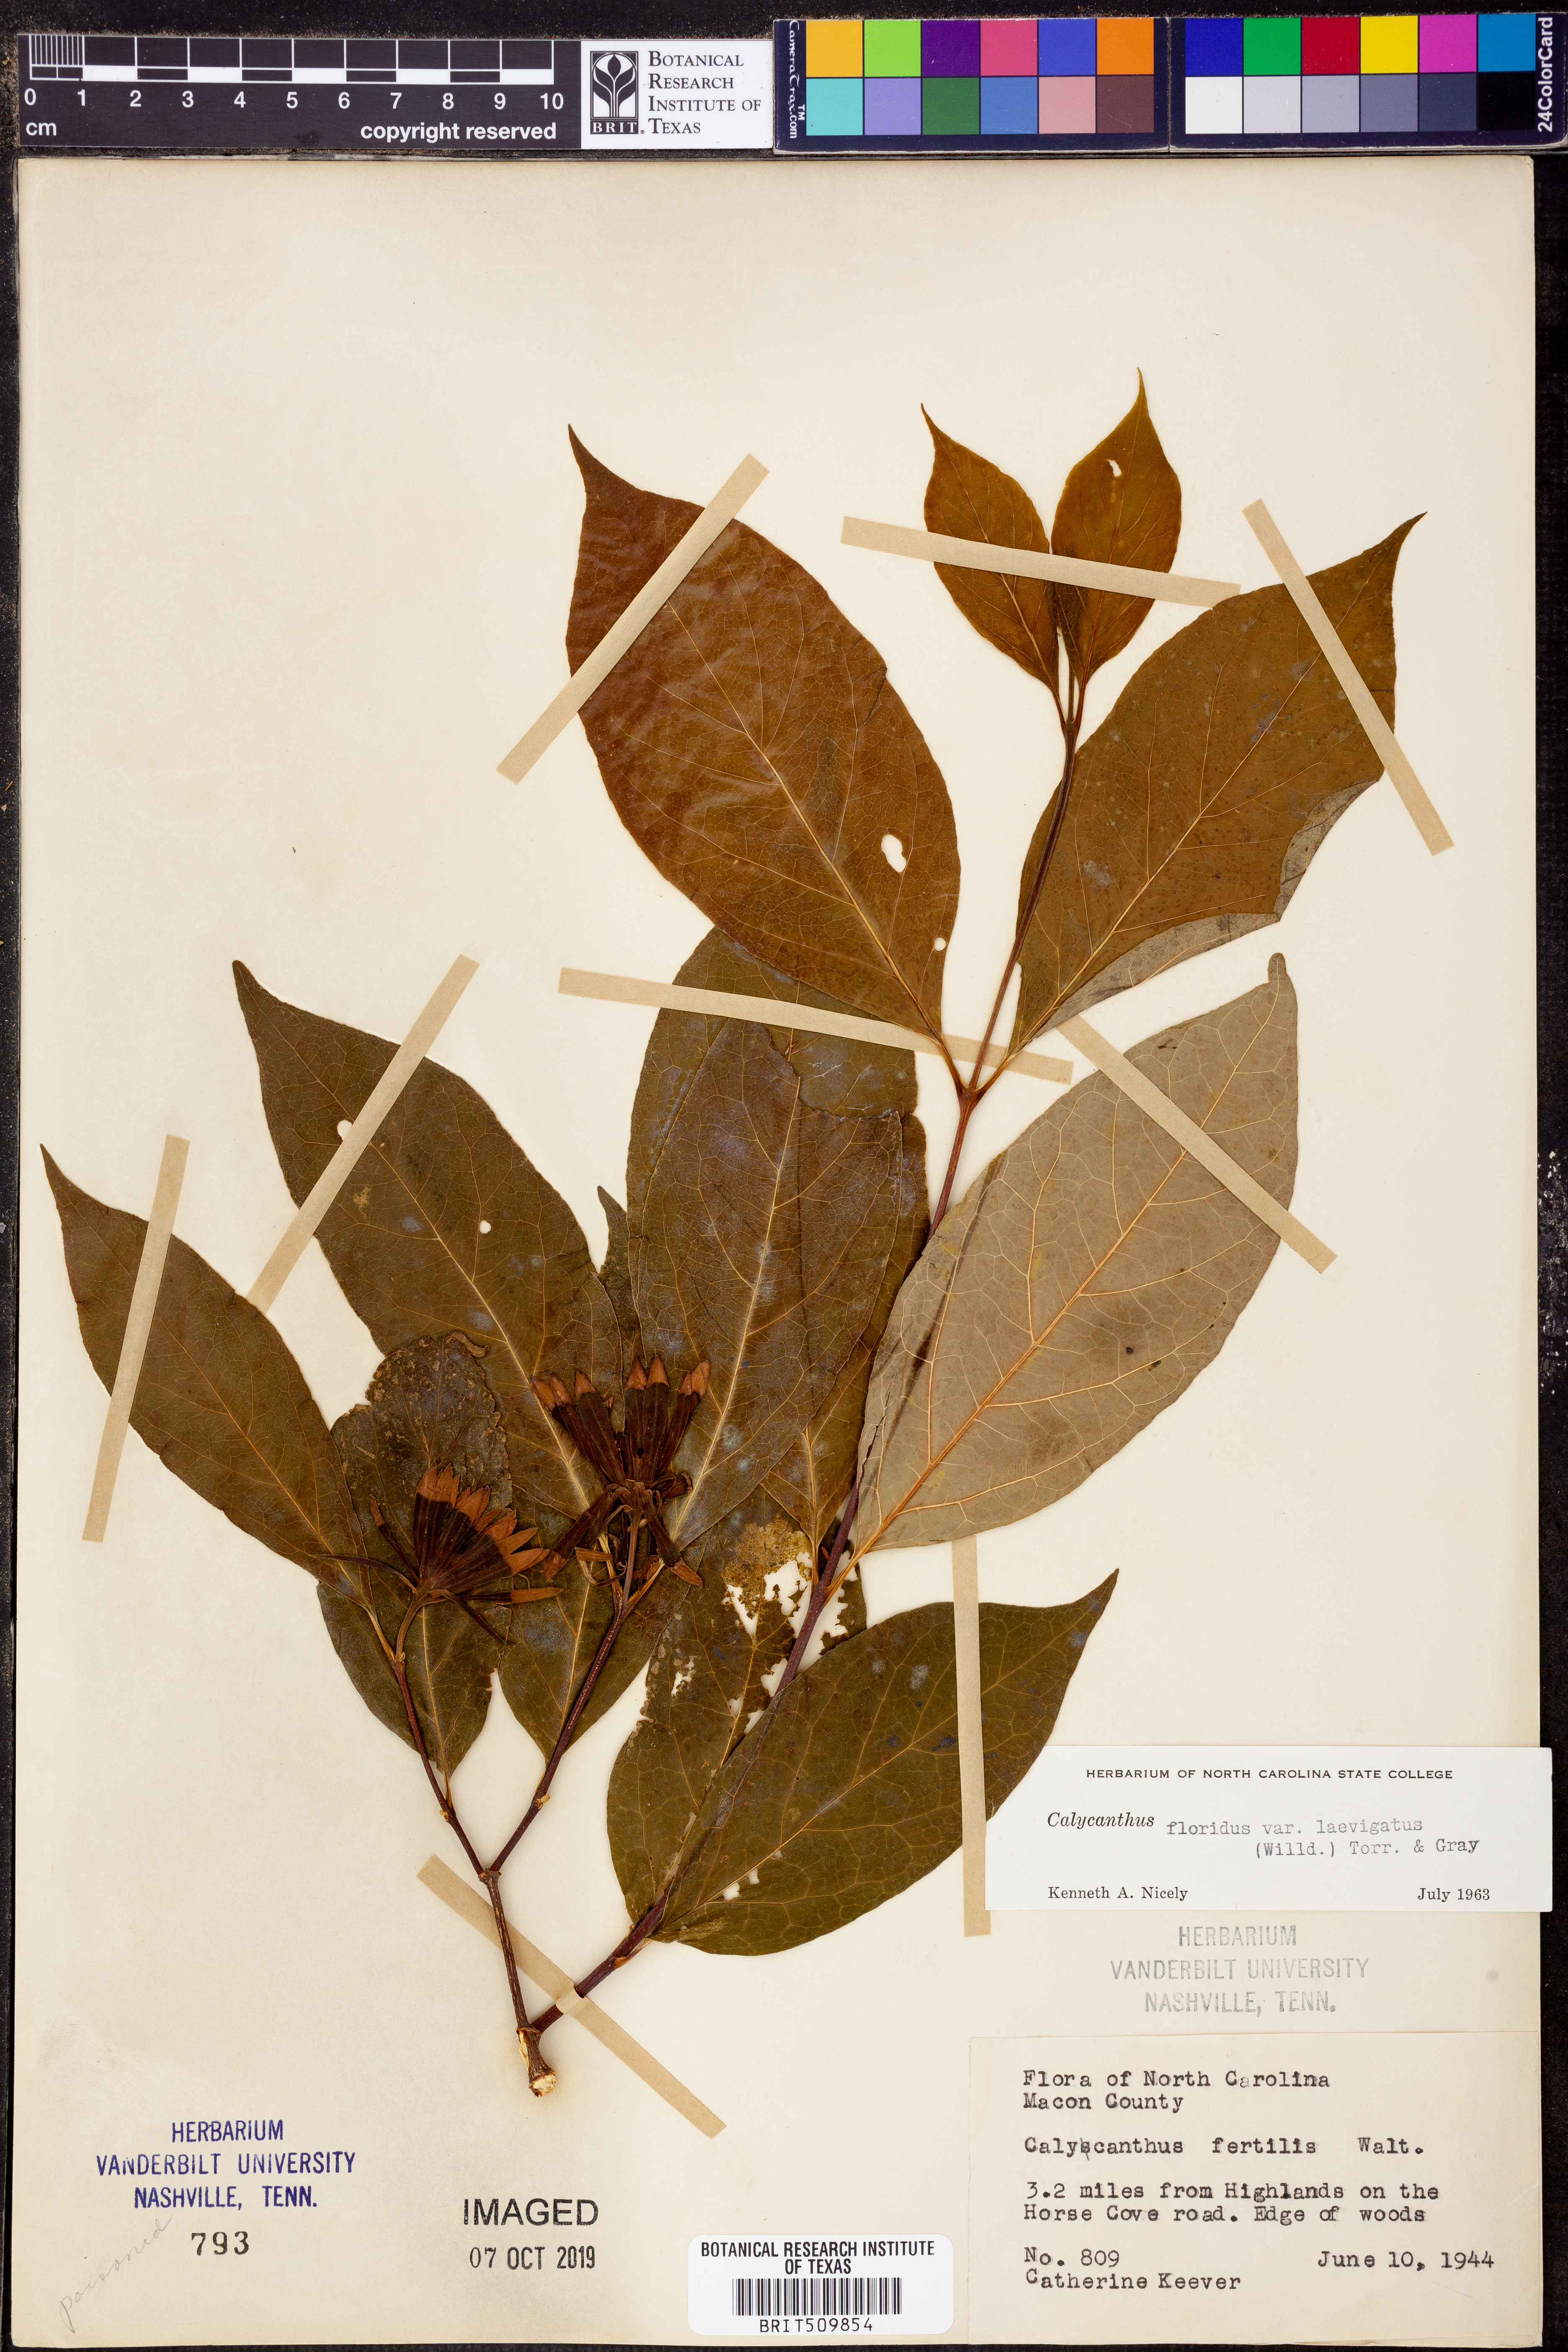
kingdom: Plantae
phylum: Tracheophyta
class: Magnoliopsida
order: Laurales
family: Calycanthaceae
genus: Calycanthus
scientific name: Calycanthus floridus
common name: Carolina-allspice
